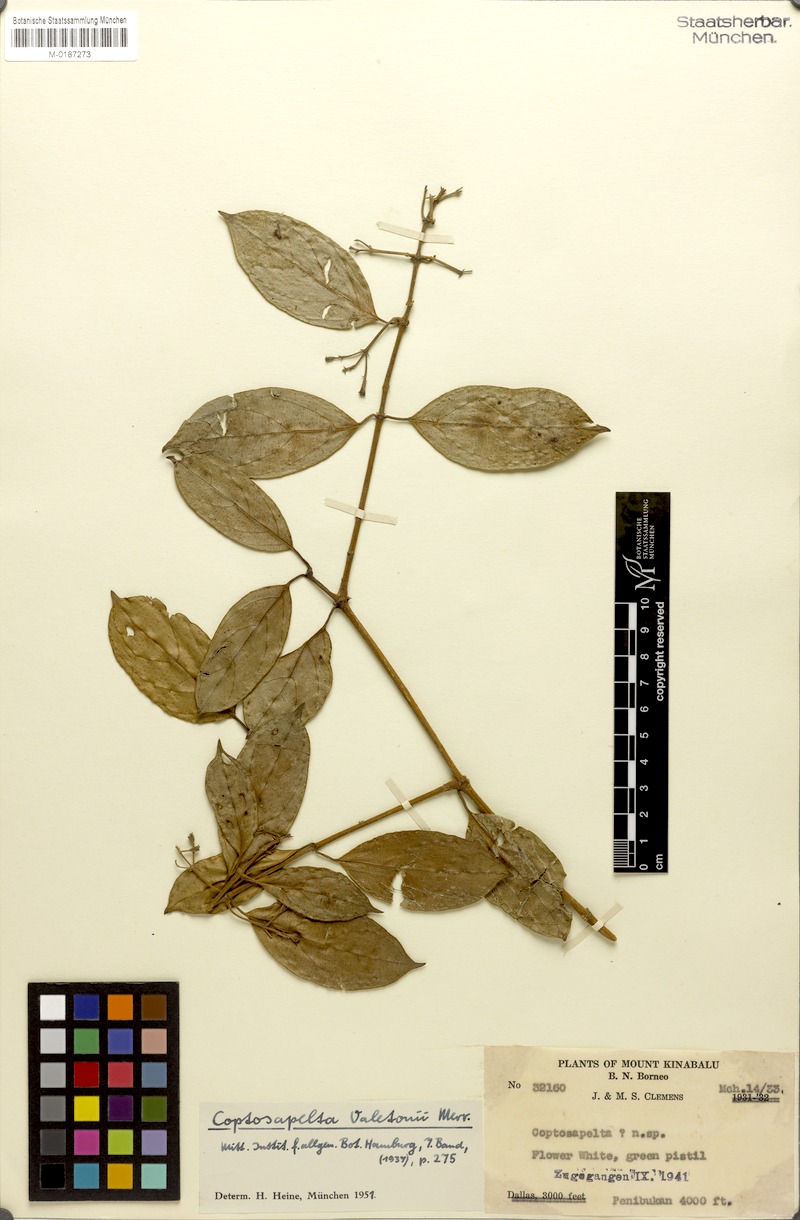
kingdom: Plantae
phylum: Tracheophyta
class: Magnoliopsida
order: Gentianales
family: Rubiaceae
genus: Coptosapelta
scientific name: Coptosapelta valetonii
